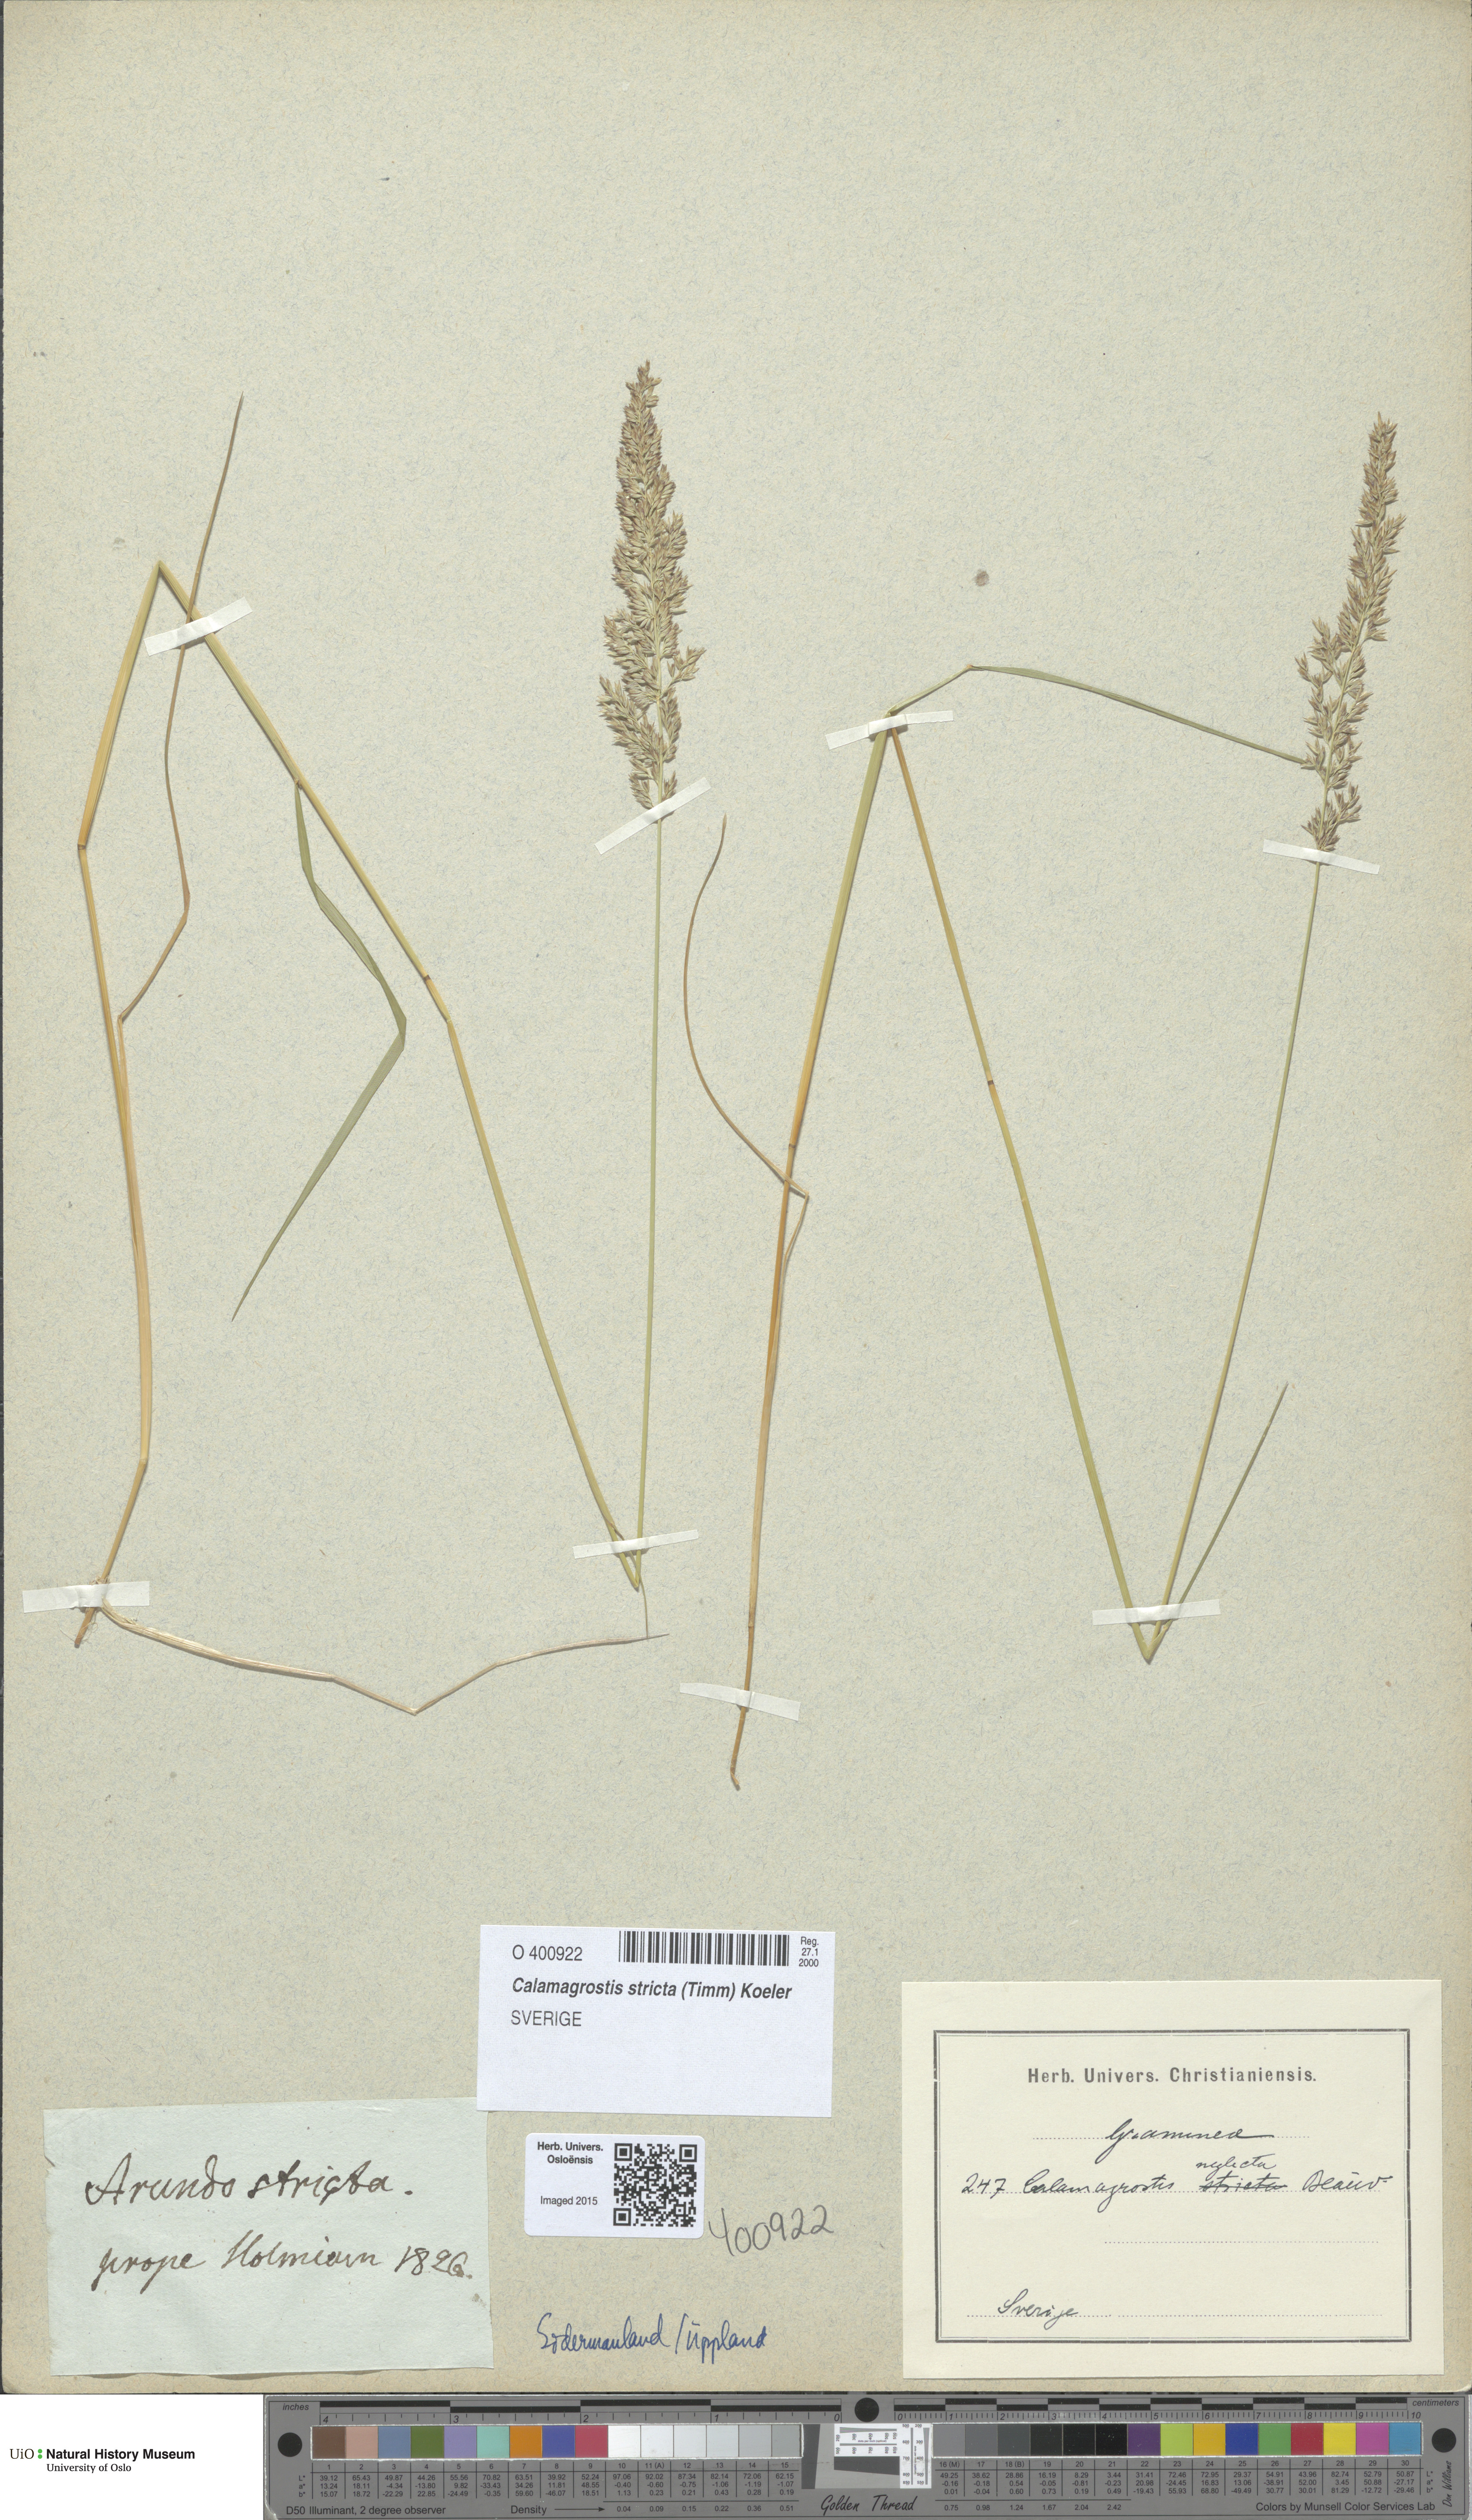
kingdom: Plantae
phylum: Tracheophyta
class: Liliopsida
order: Poales
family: Poaceae
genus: Achnatherum
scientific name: Achnatherum calamagrostis
